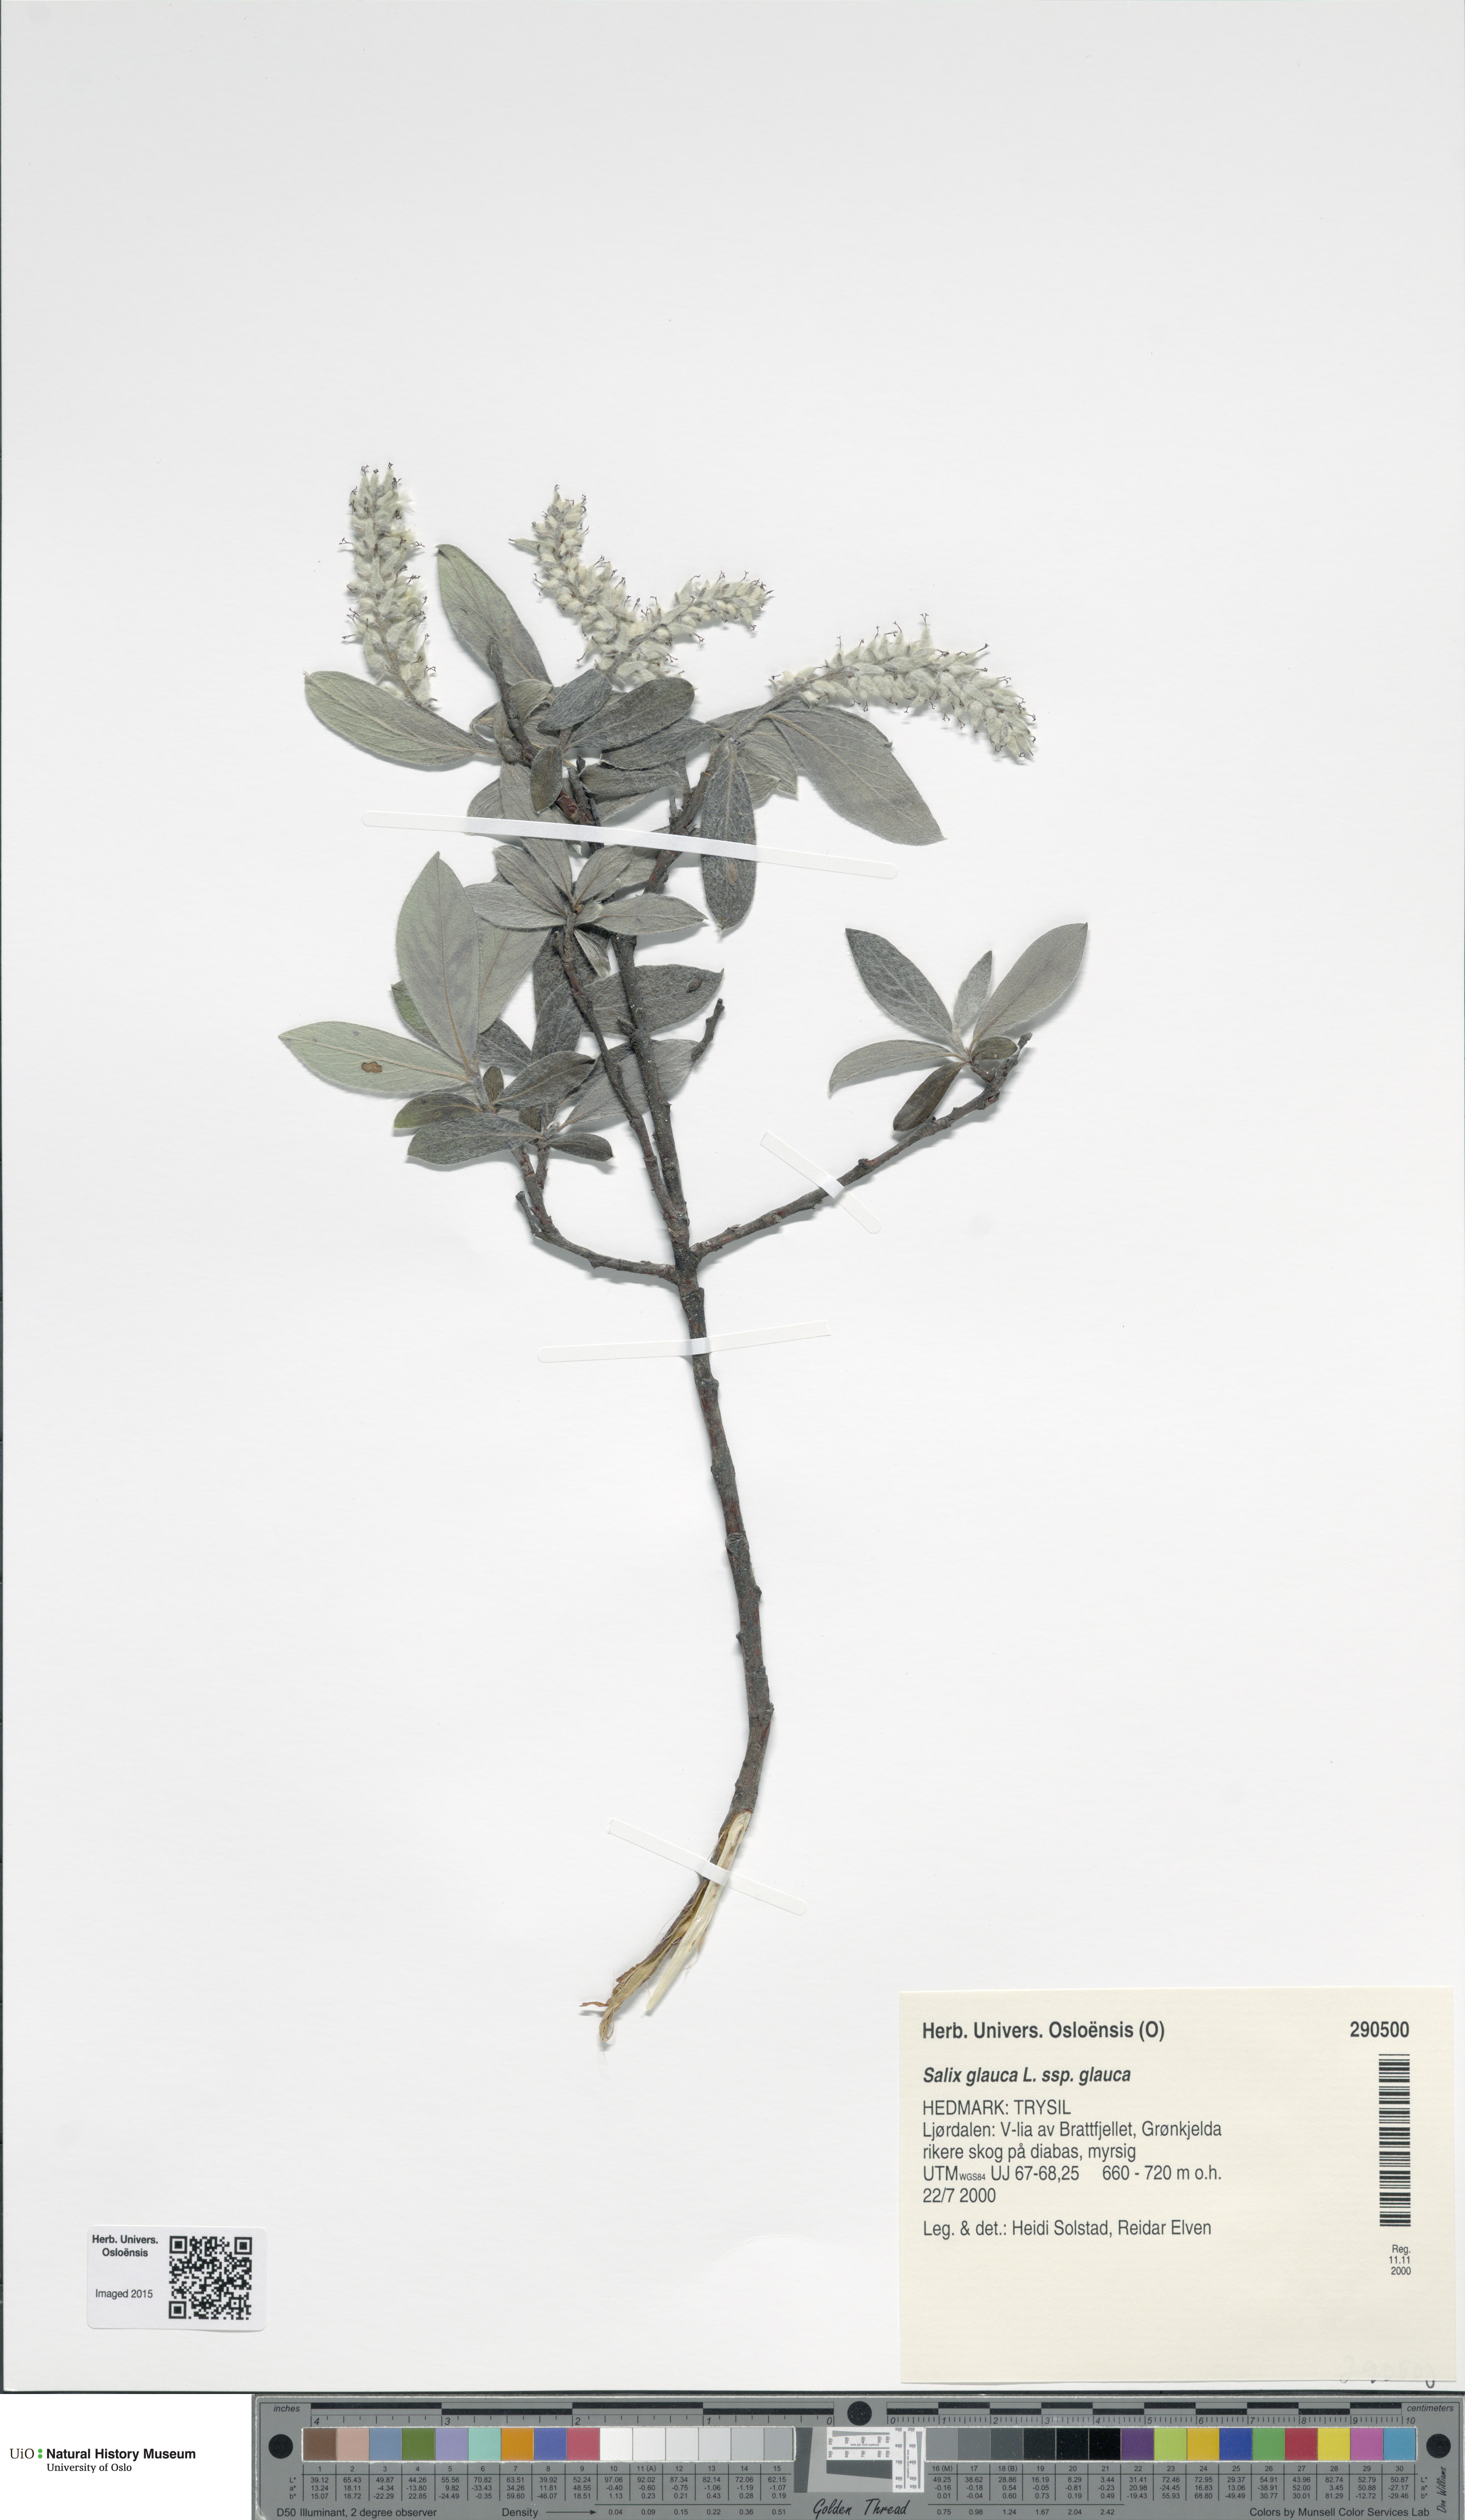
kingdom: Plantae
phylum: Tracheophyta
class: Magnoliopsida
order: Malpighiales
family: Salicaceae
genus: Salix
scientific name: Salix glauca
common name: Glaucous willow
